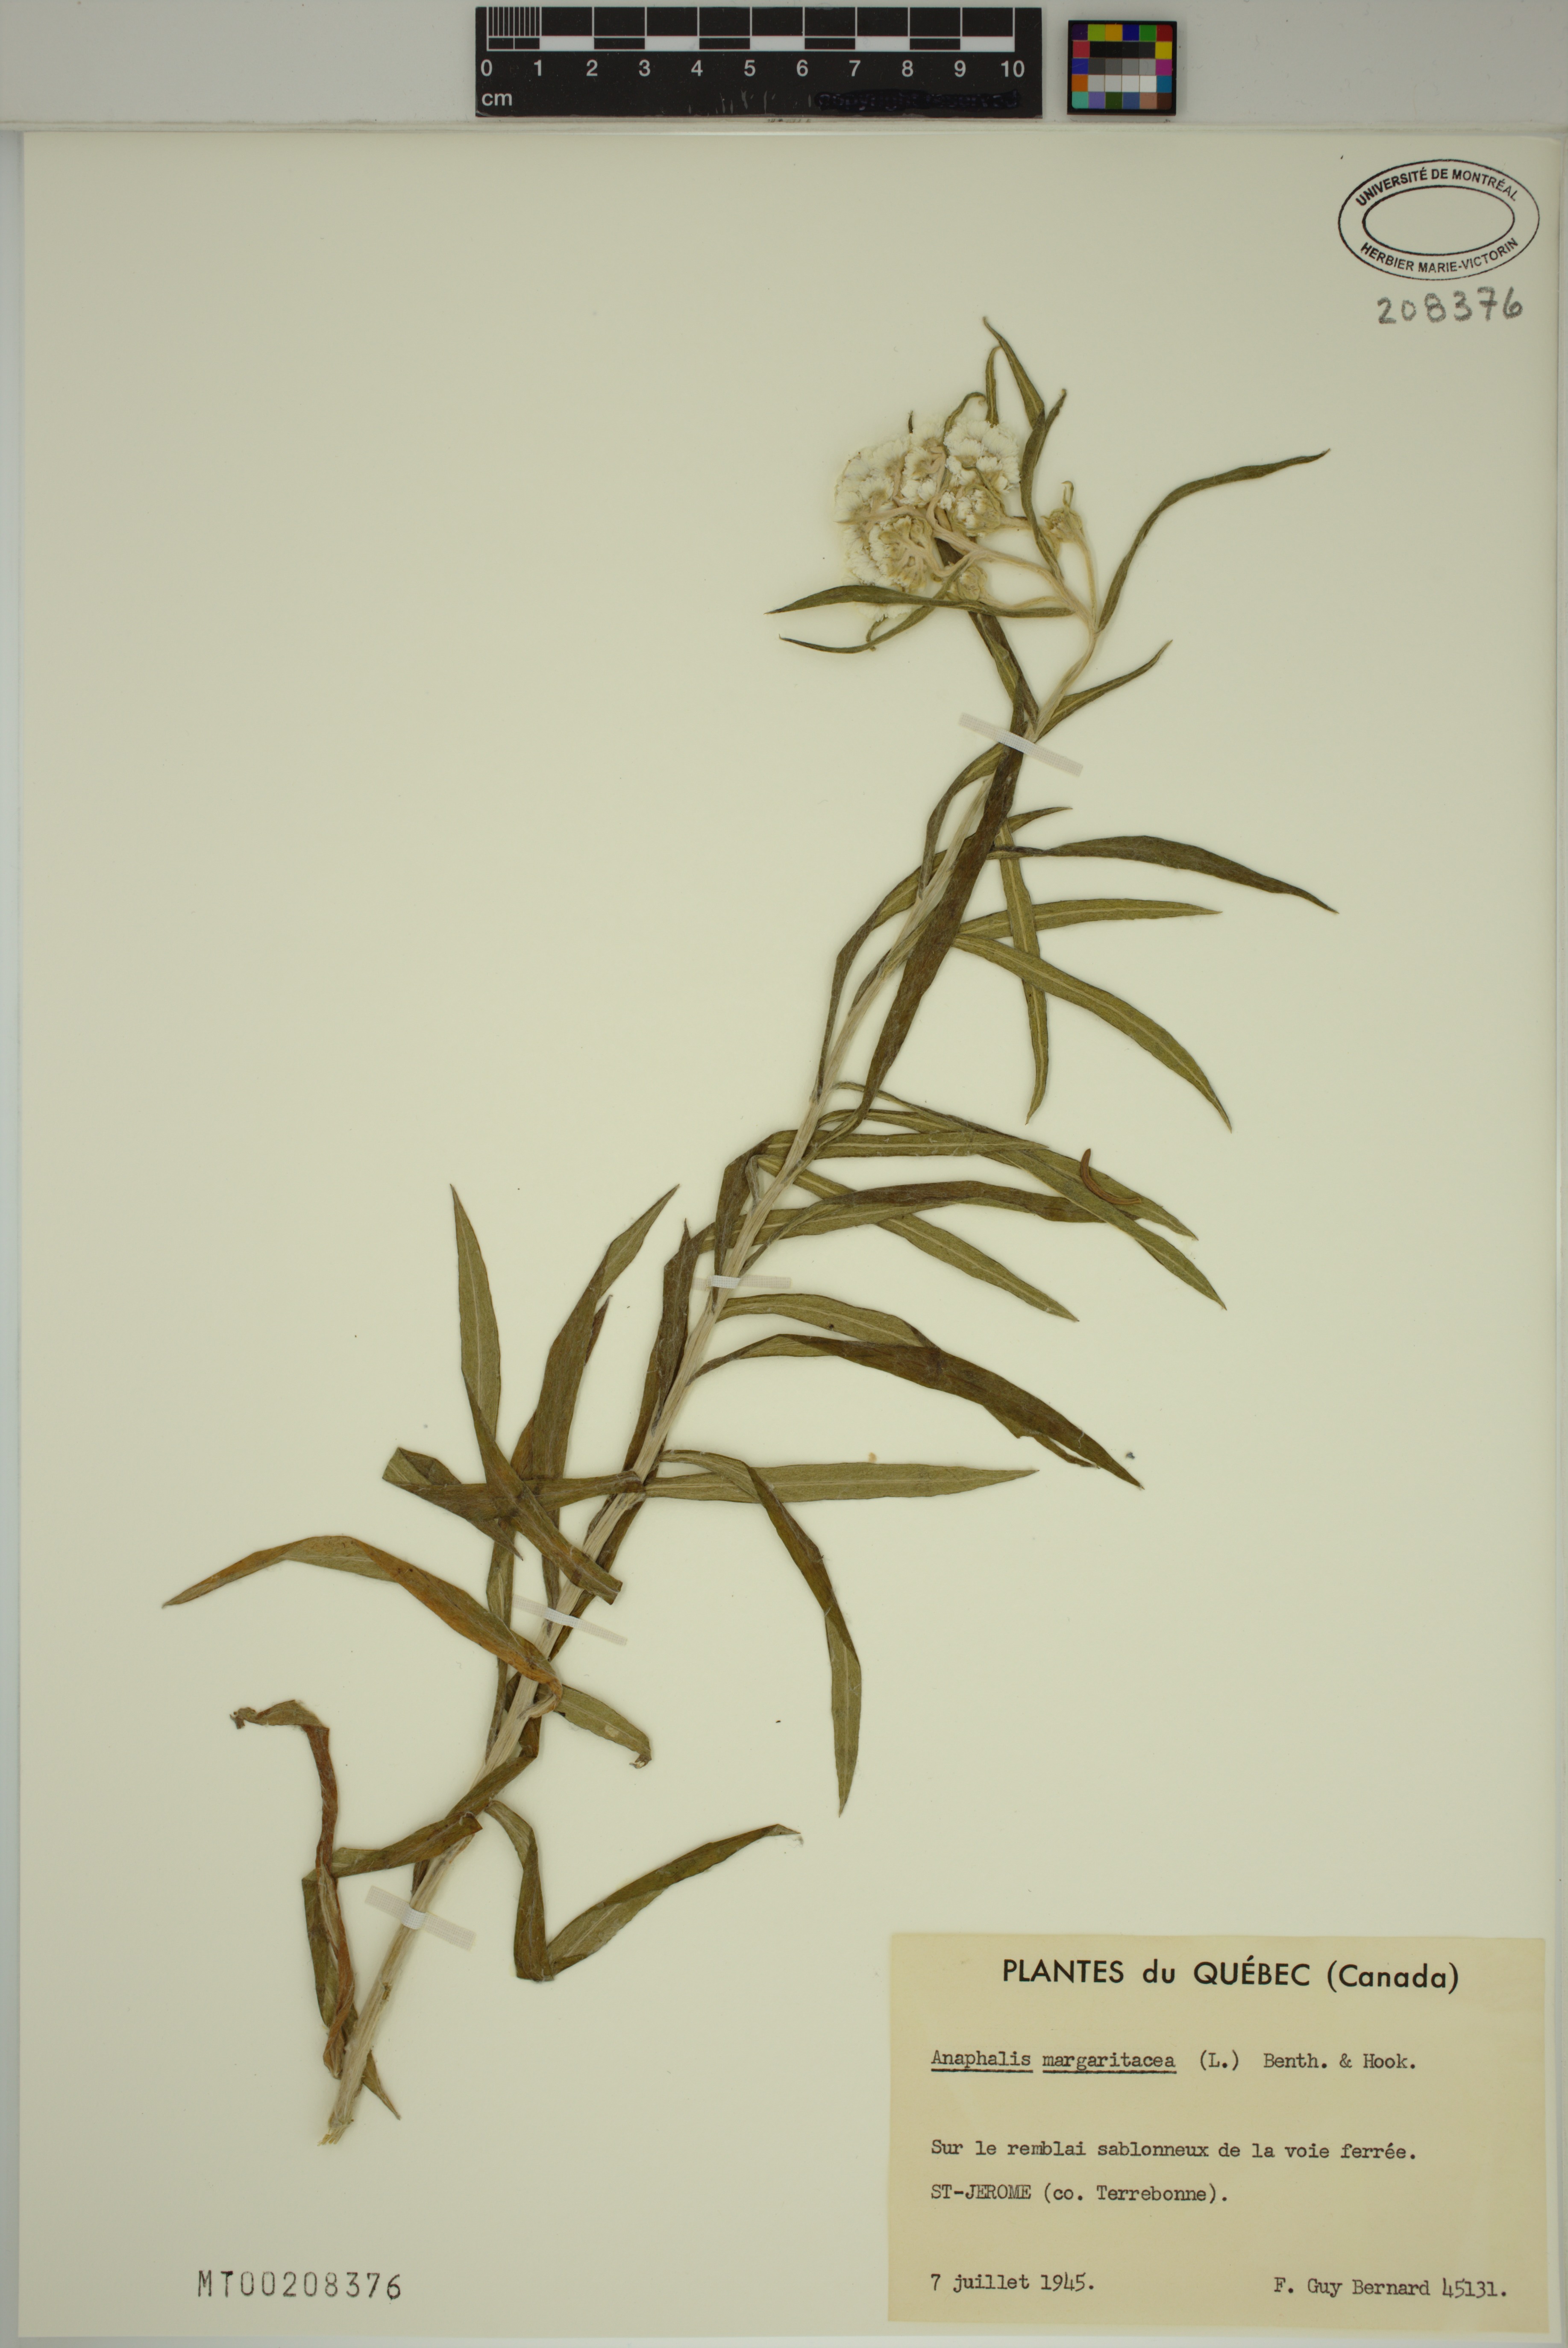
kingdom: Plantae
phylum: Tracheophyta
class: Magnoliopsida
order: Asterales
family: Asteraceae
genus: Anaphalis
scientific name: Anaphalis margaritacea
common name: Pearly everlasting
